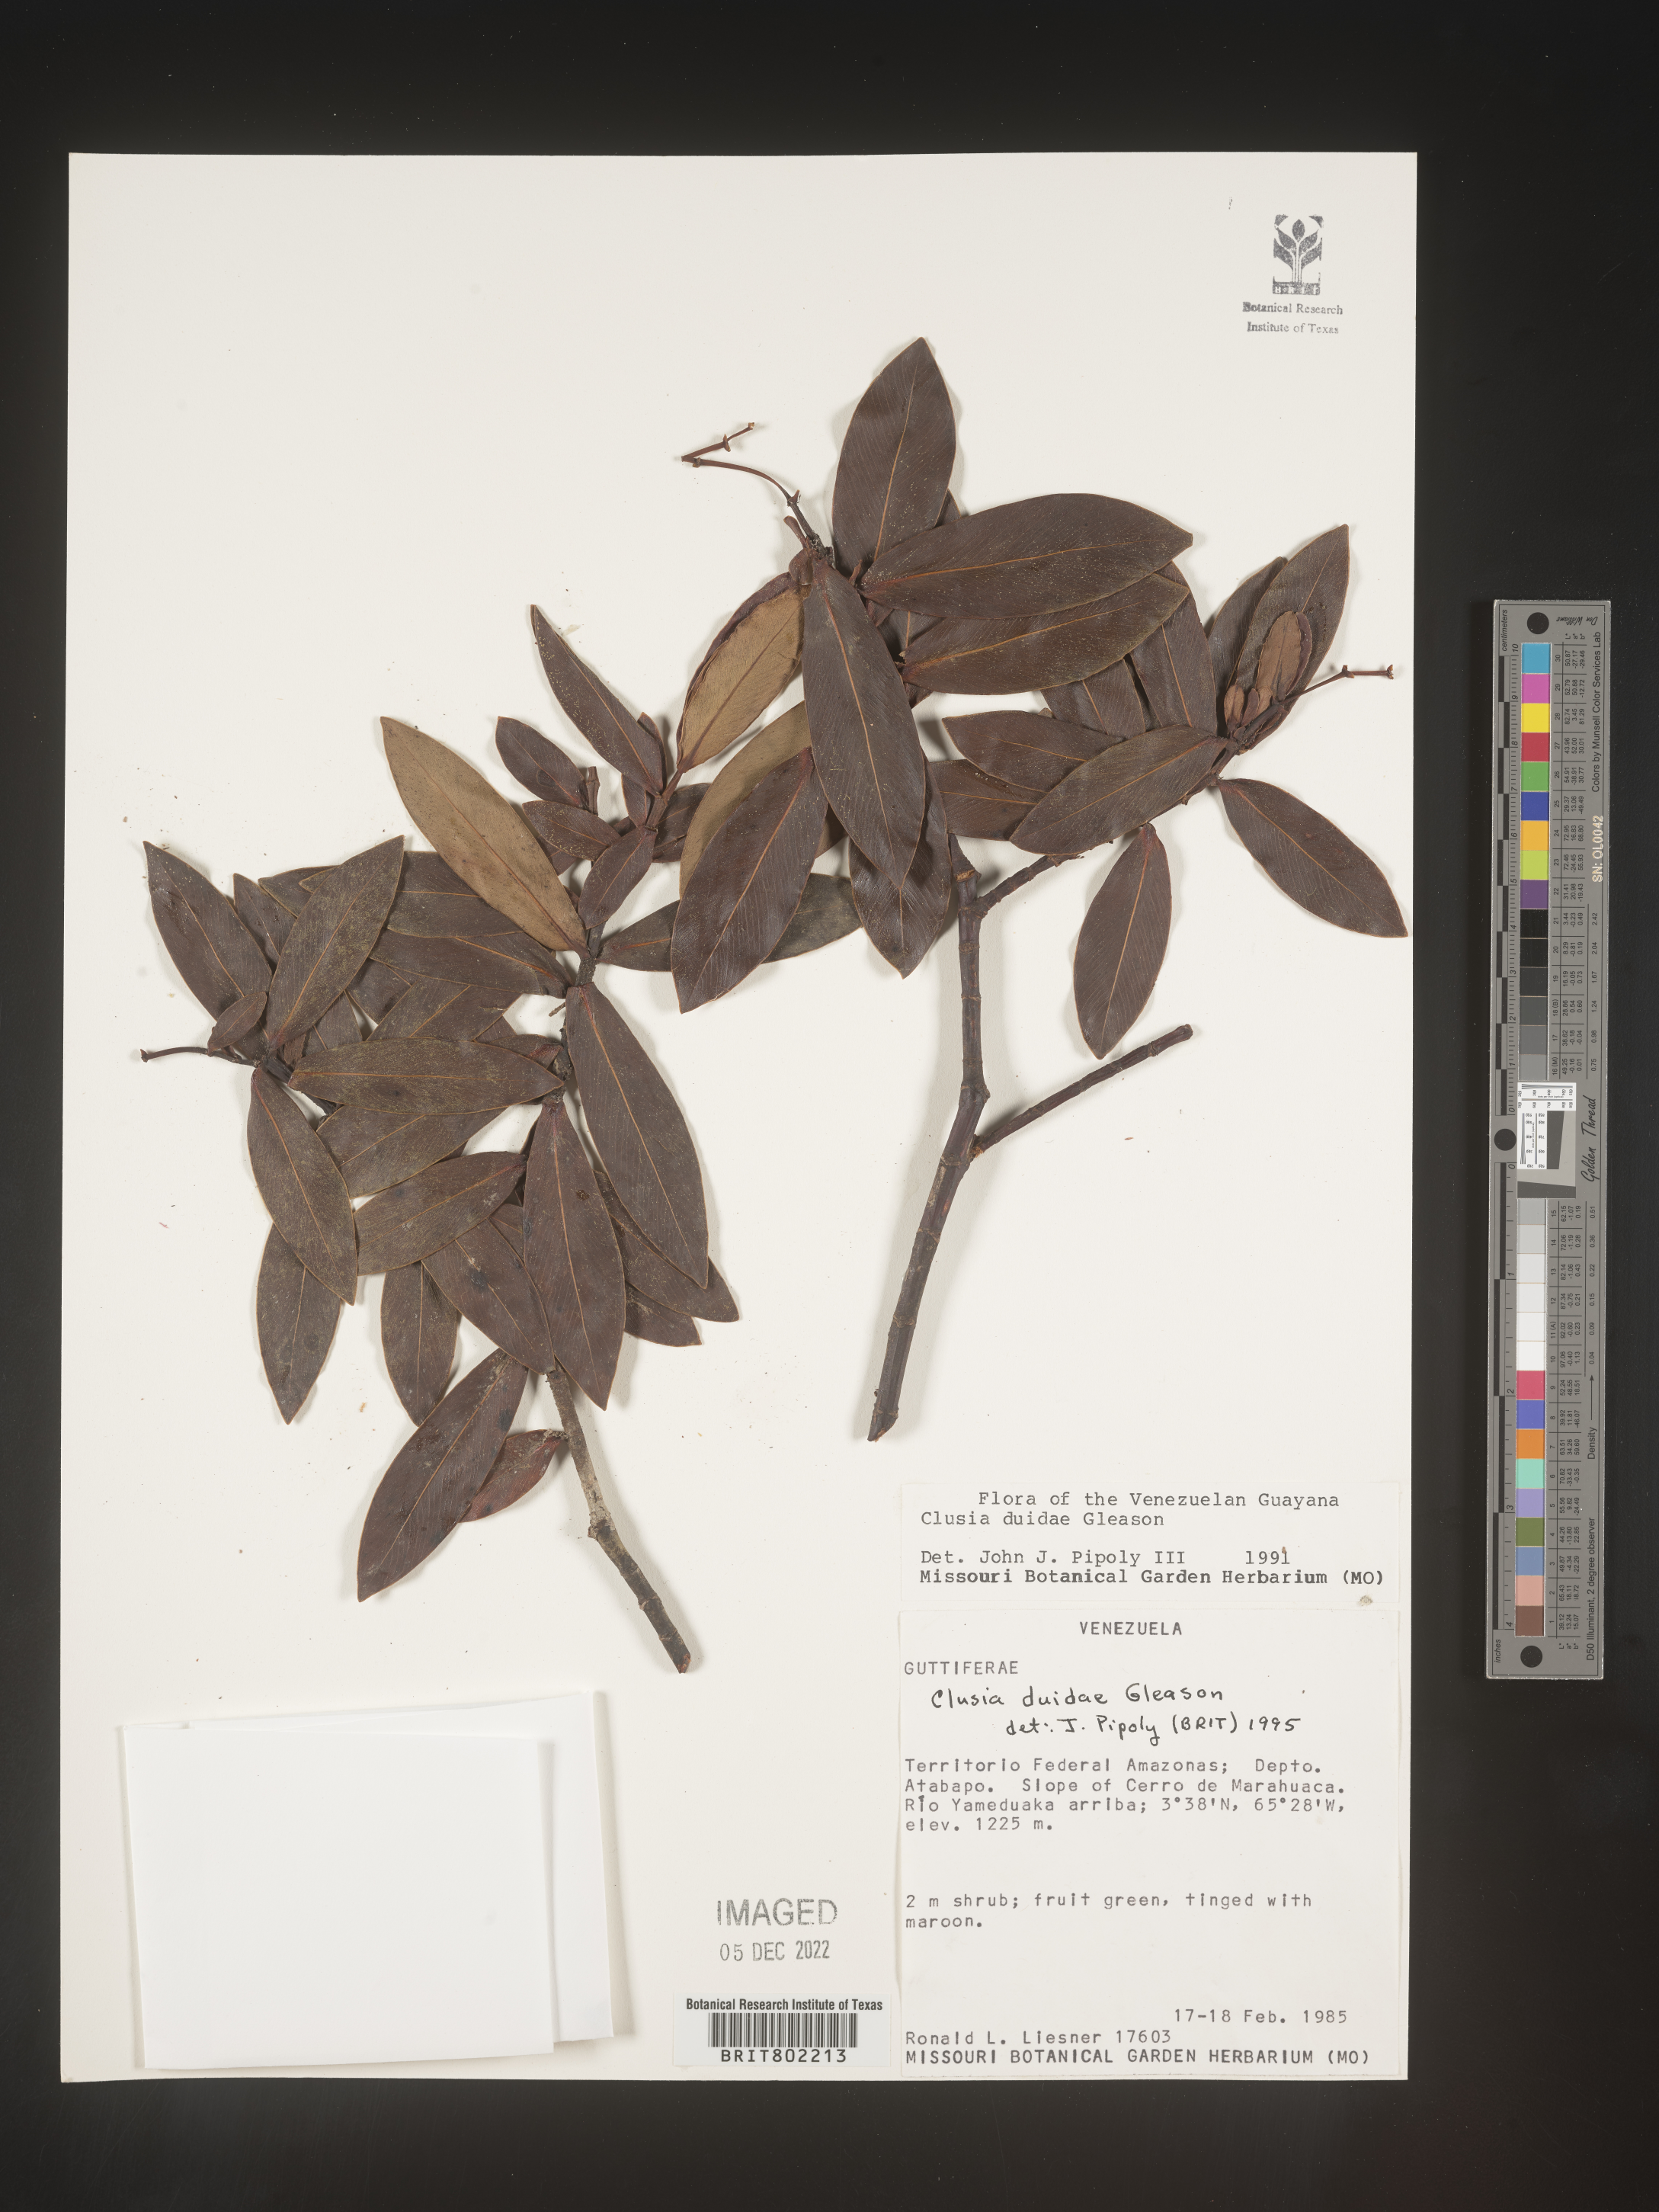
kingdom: Plantae
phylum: Tracheophyta
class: Magnoliopsida
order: Malpighiales
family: Clusiaceae
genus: Clusia
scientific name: Clusia
